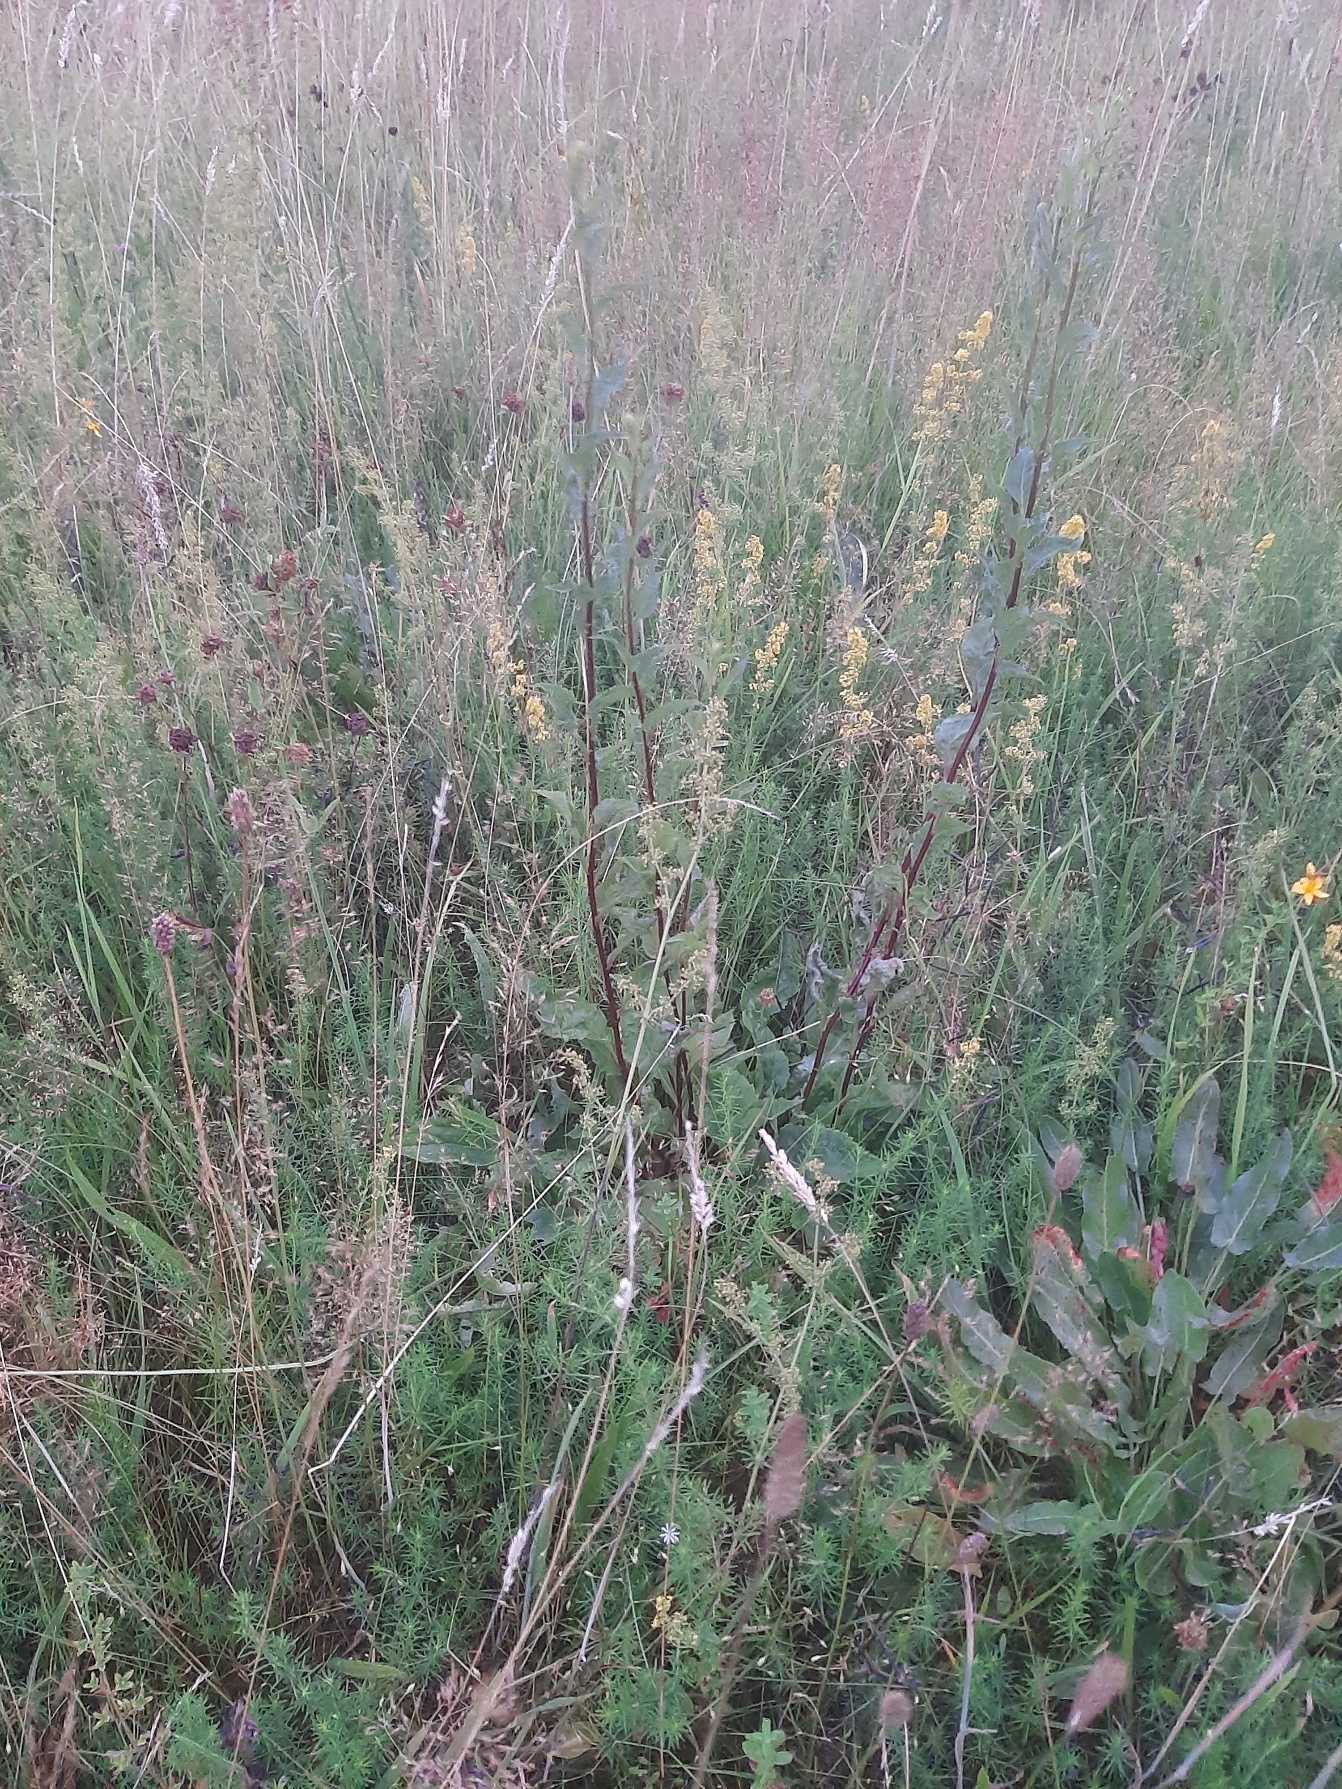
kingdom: Plantae
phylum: Tracheophyta
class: Magnoliopsida
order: Asterales
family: Asteraceae
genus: Solidago
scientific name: Solidago virgaurea
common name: Almindelig gyldenris
